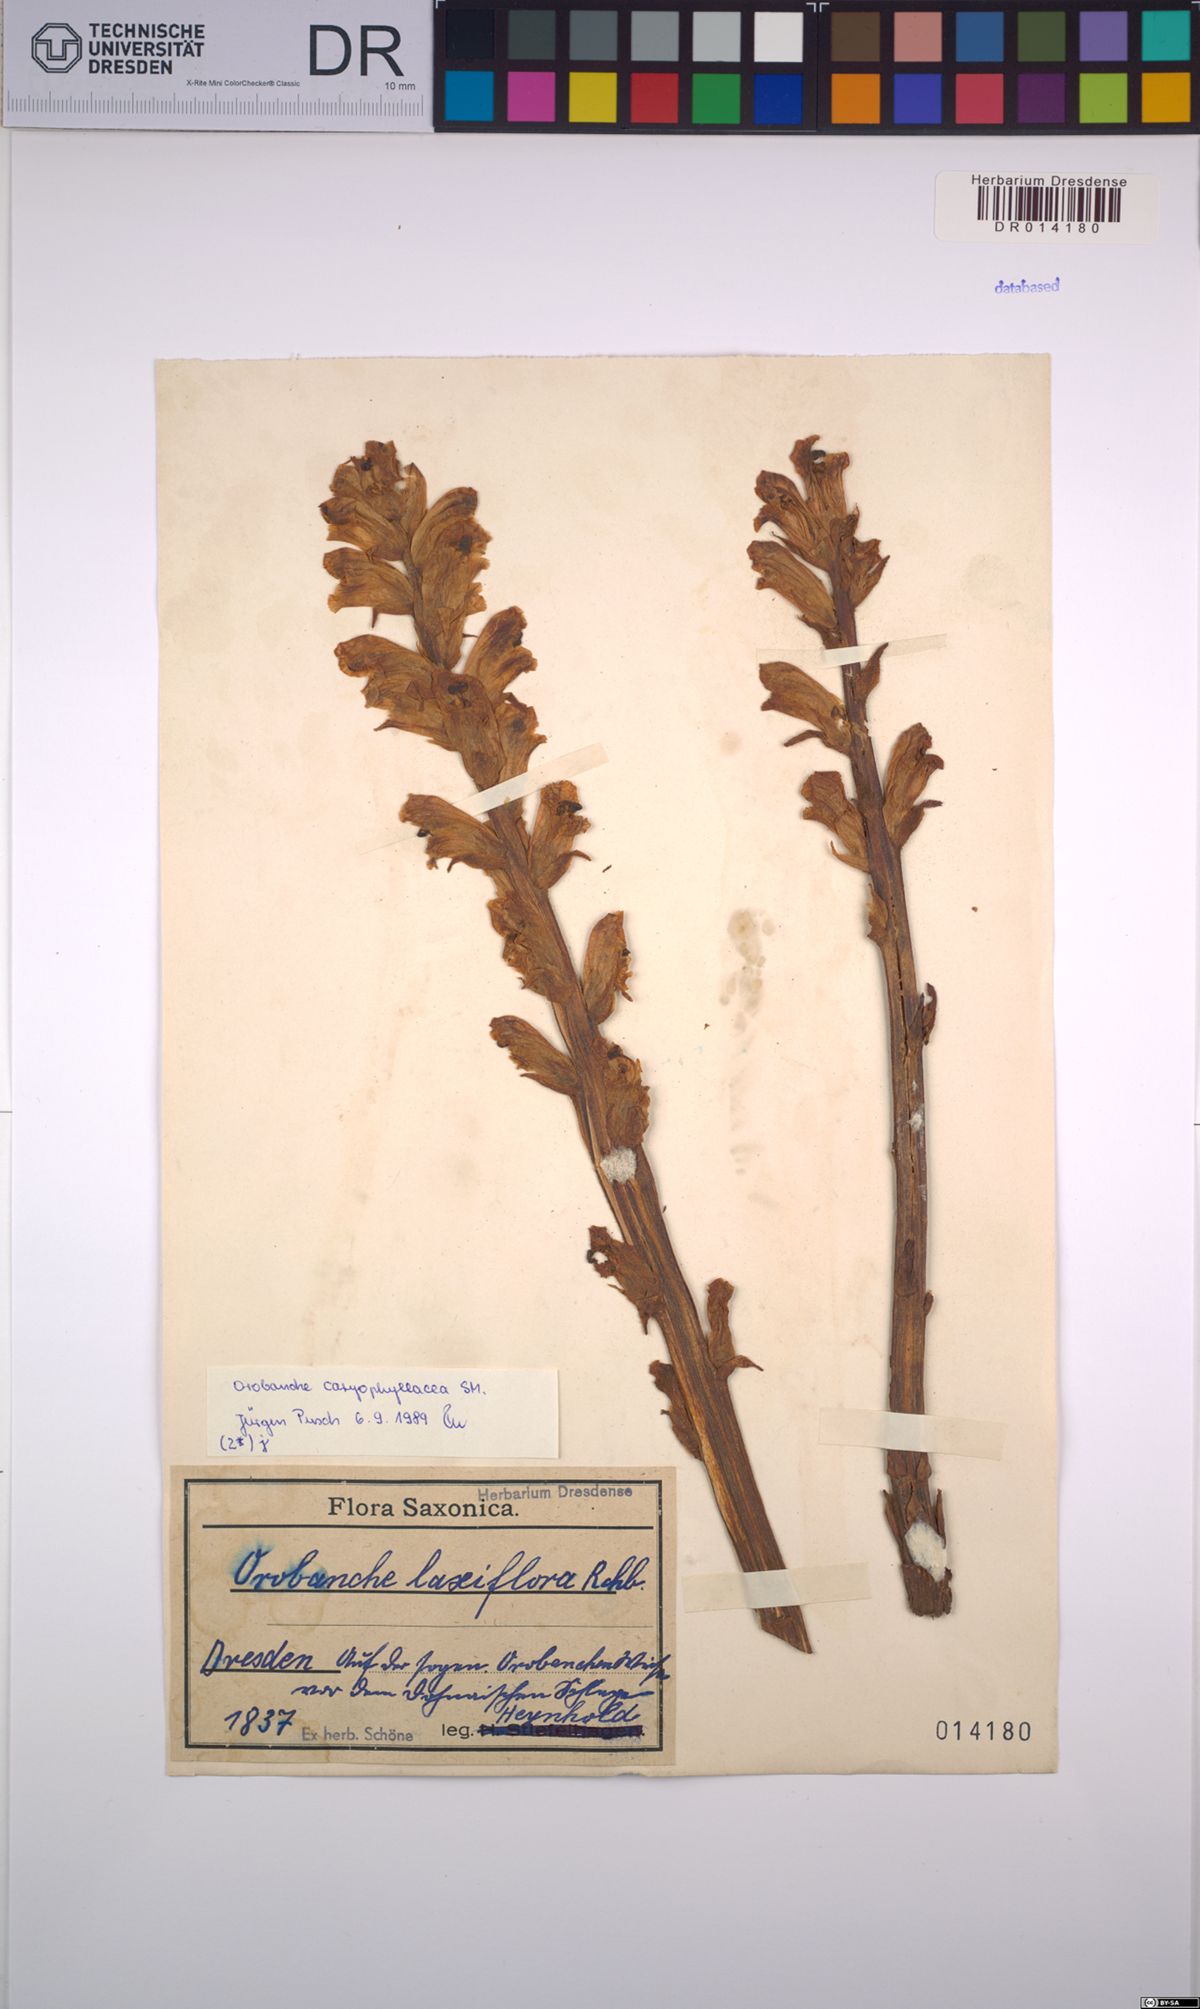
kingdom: Plantae
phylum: Tracheophyta
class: Magnoliopsida
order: Lamiales
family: Orobanchaceae
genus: Orobanche
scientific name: Orobanche caryophyllacea
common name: Bedstraw broomrape
